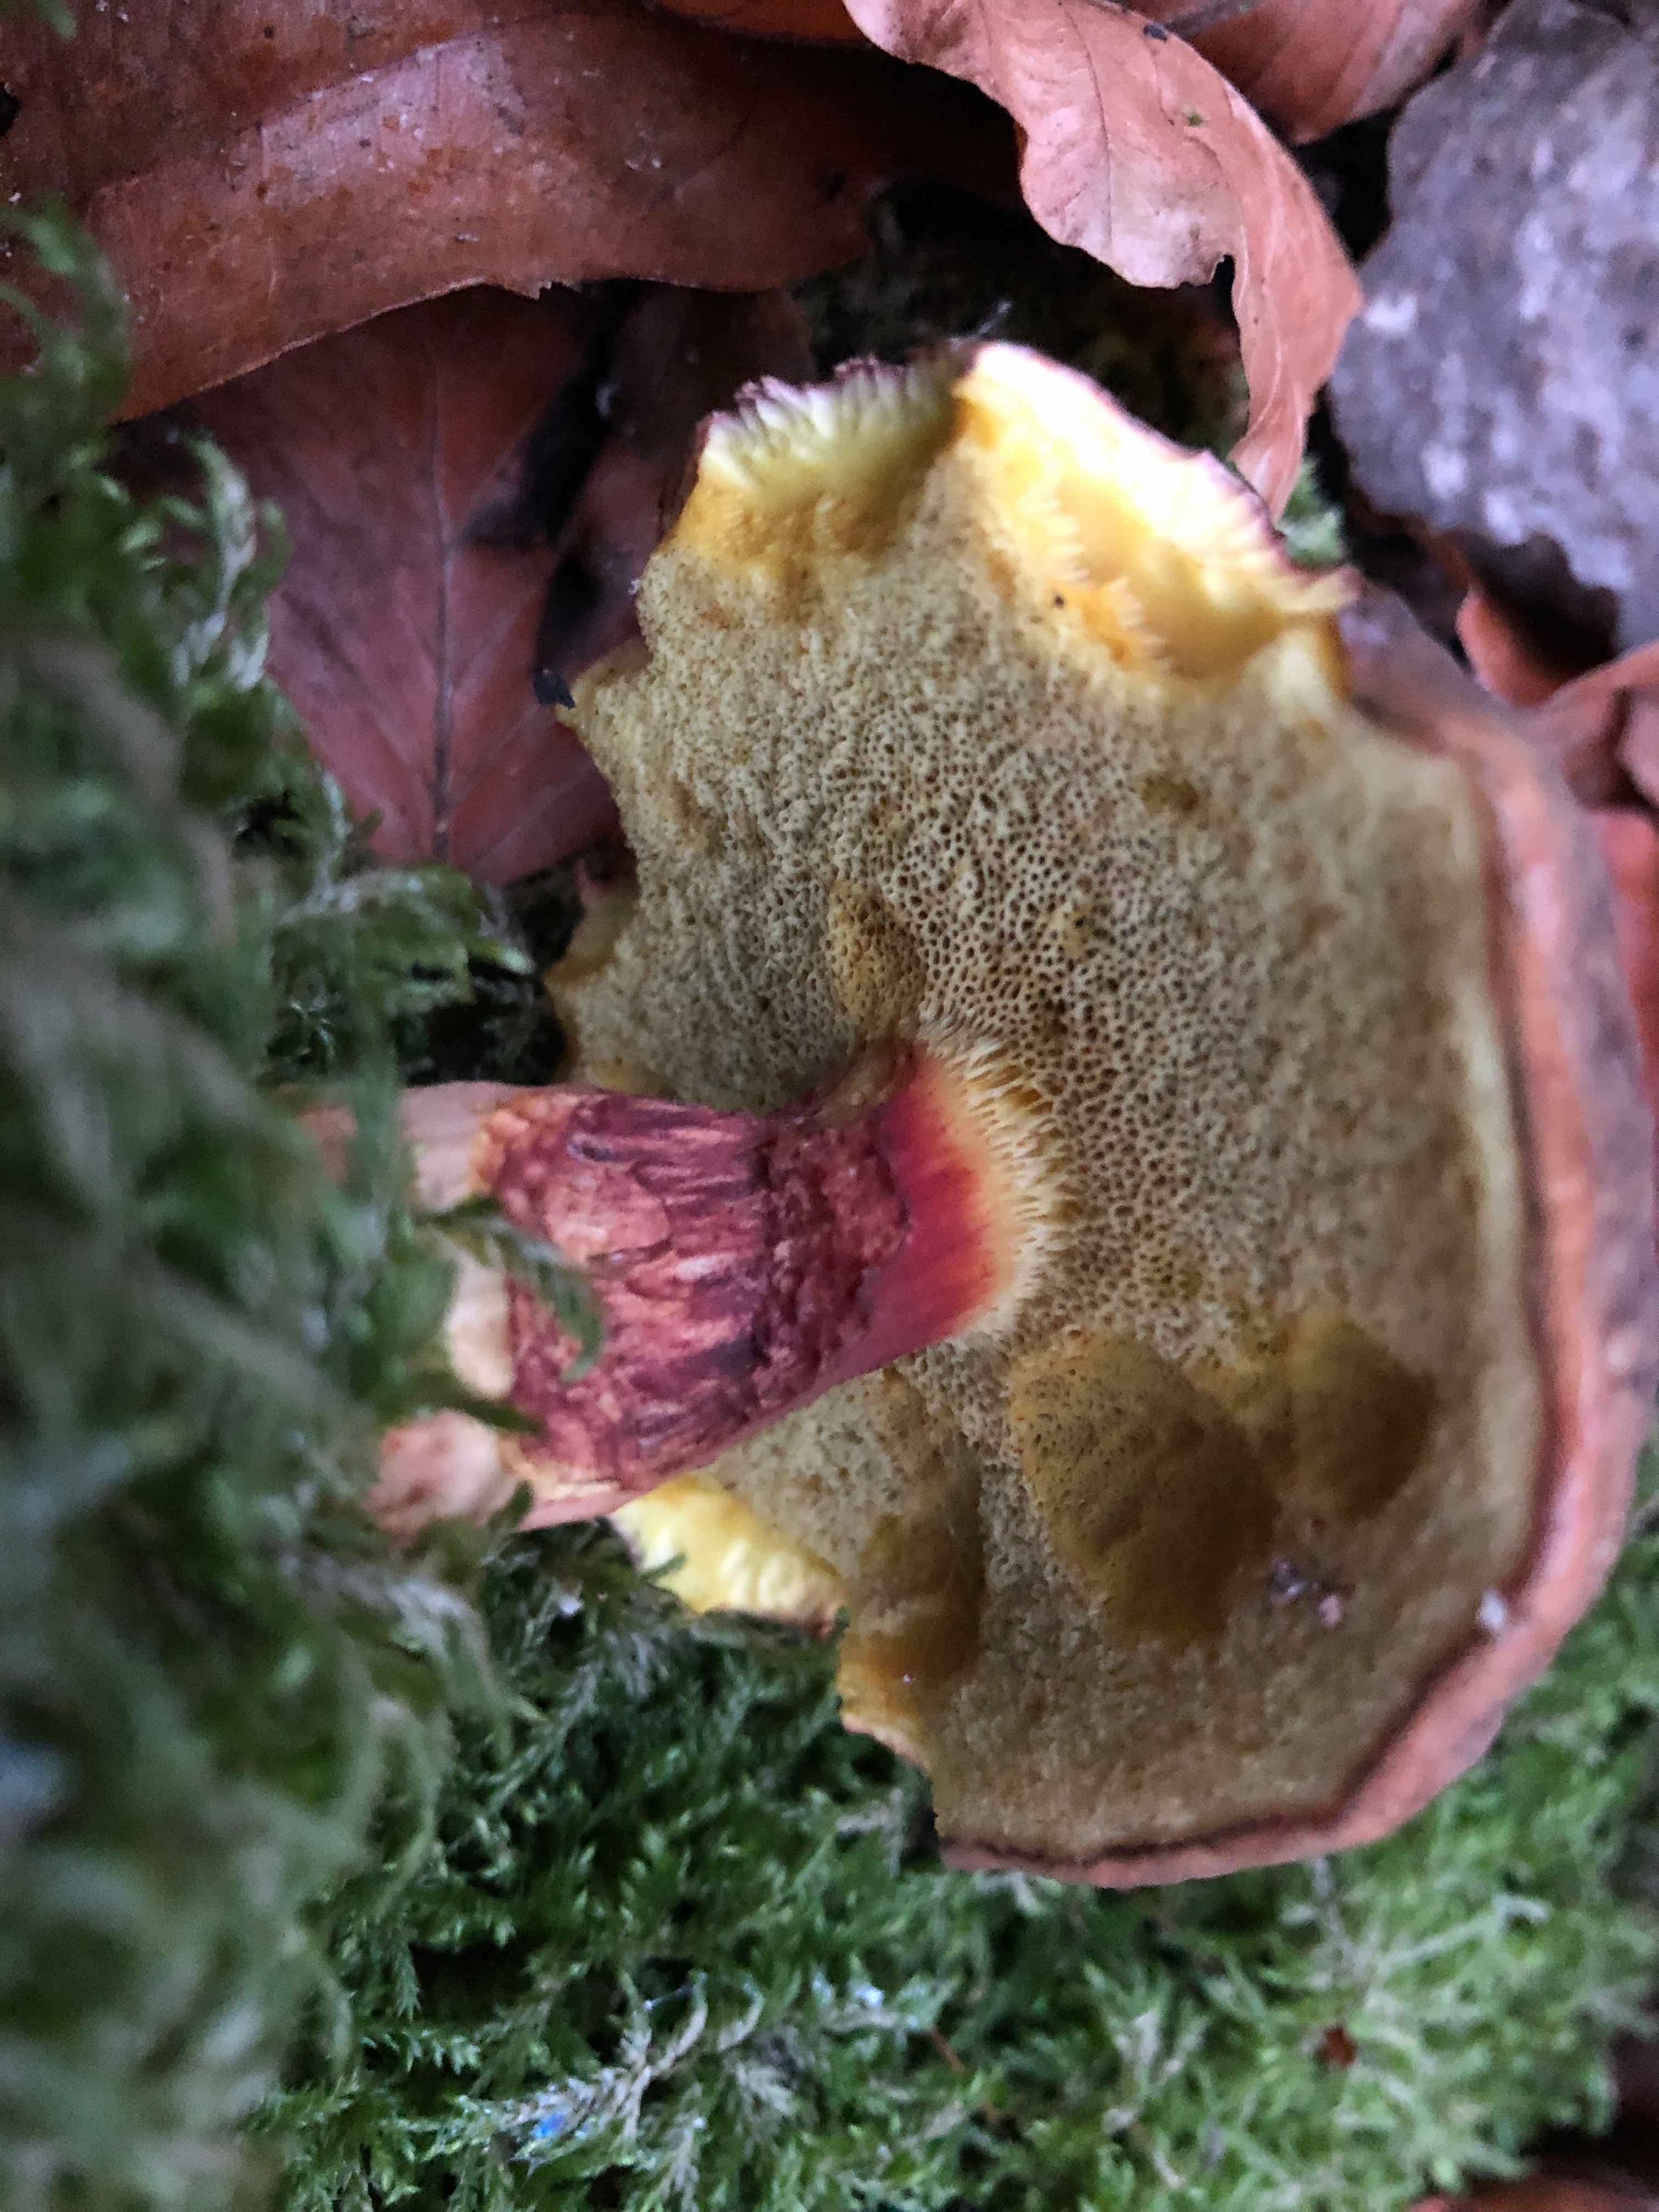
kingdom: Fungi
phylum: Basidiomycota
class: Agaricomycetes
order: Boletales
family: Boletaceae
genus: Xerocomellus
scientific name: Xerocomellus pruinatus
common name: dugget rørhat
